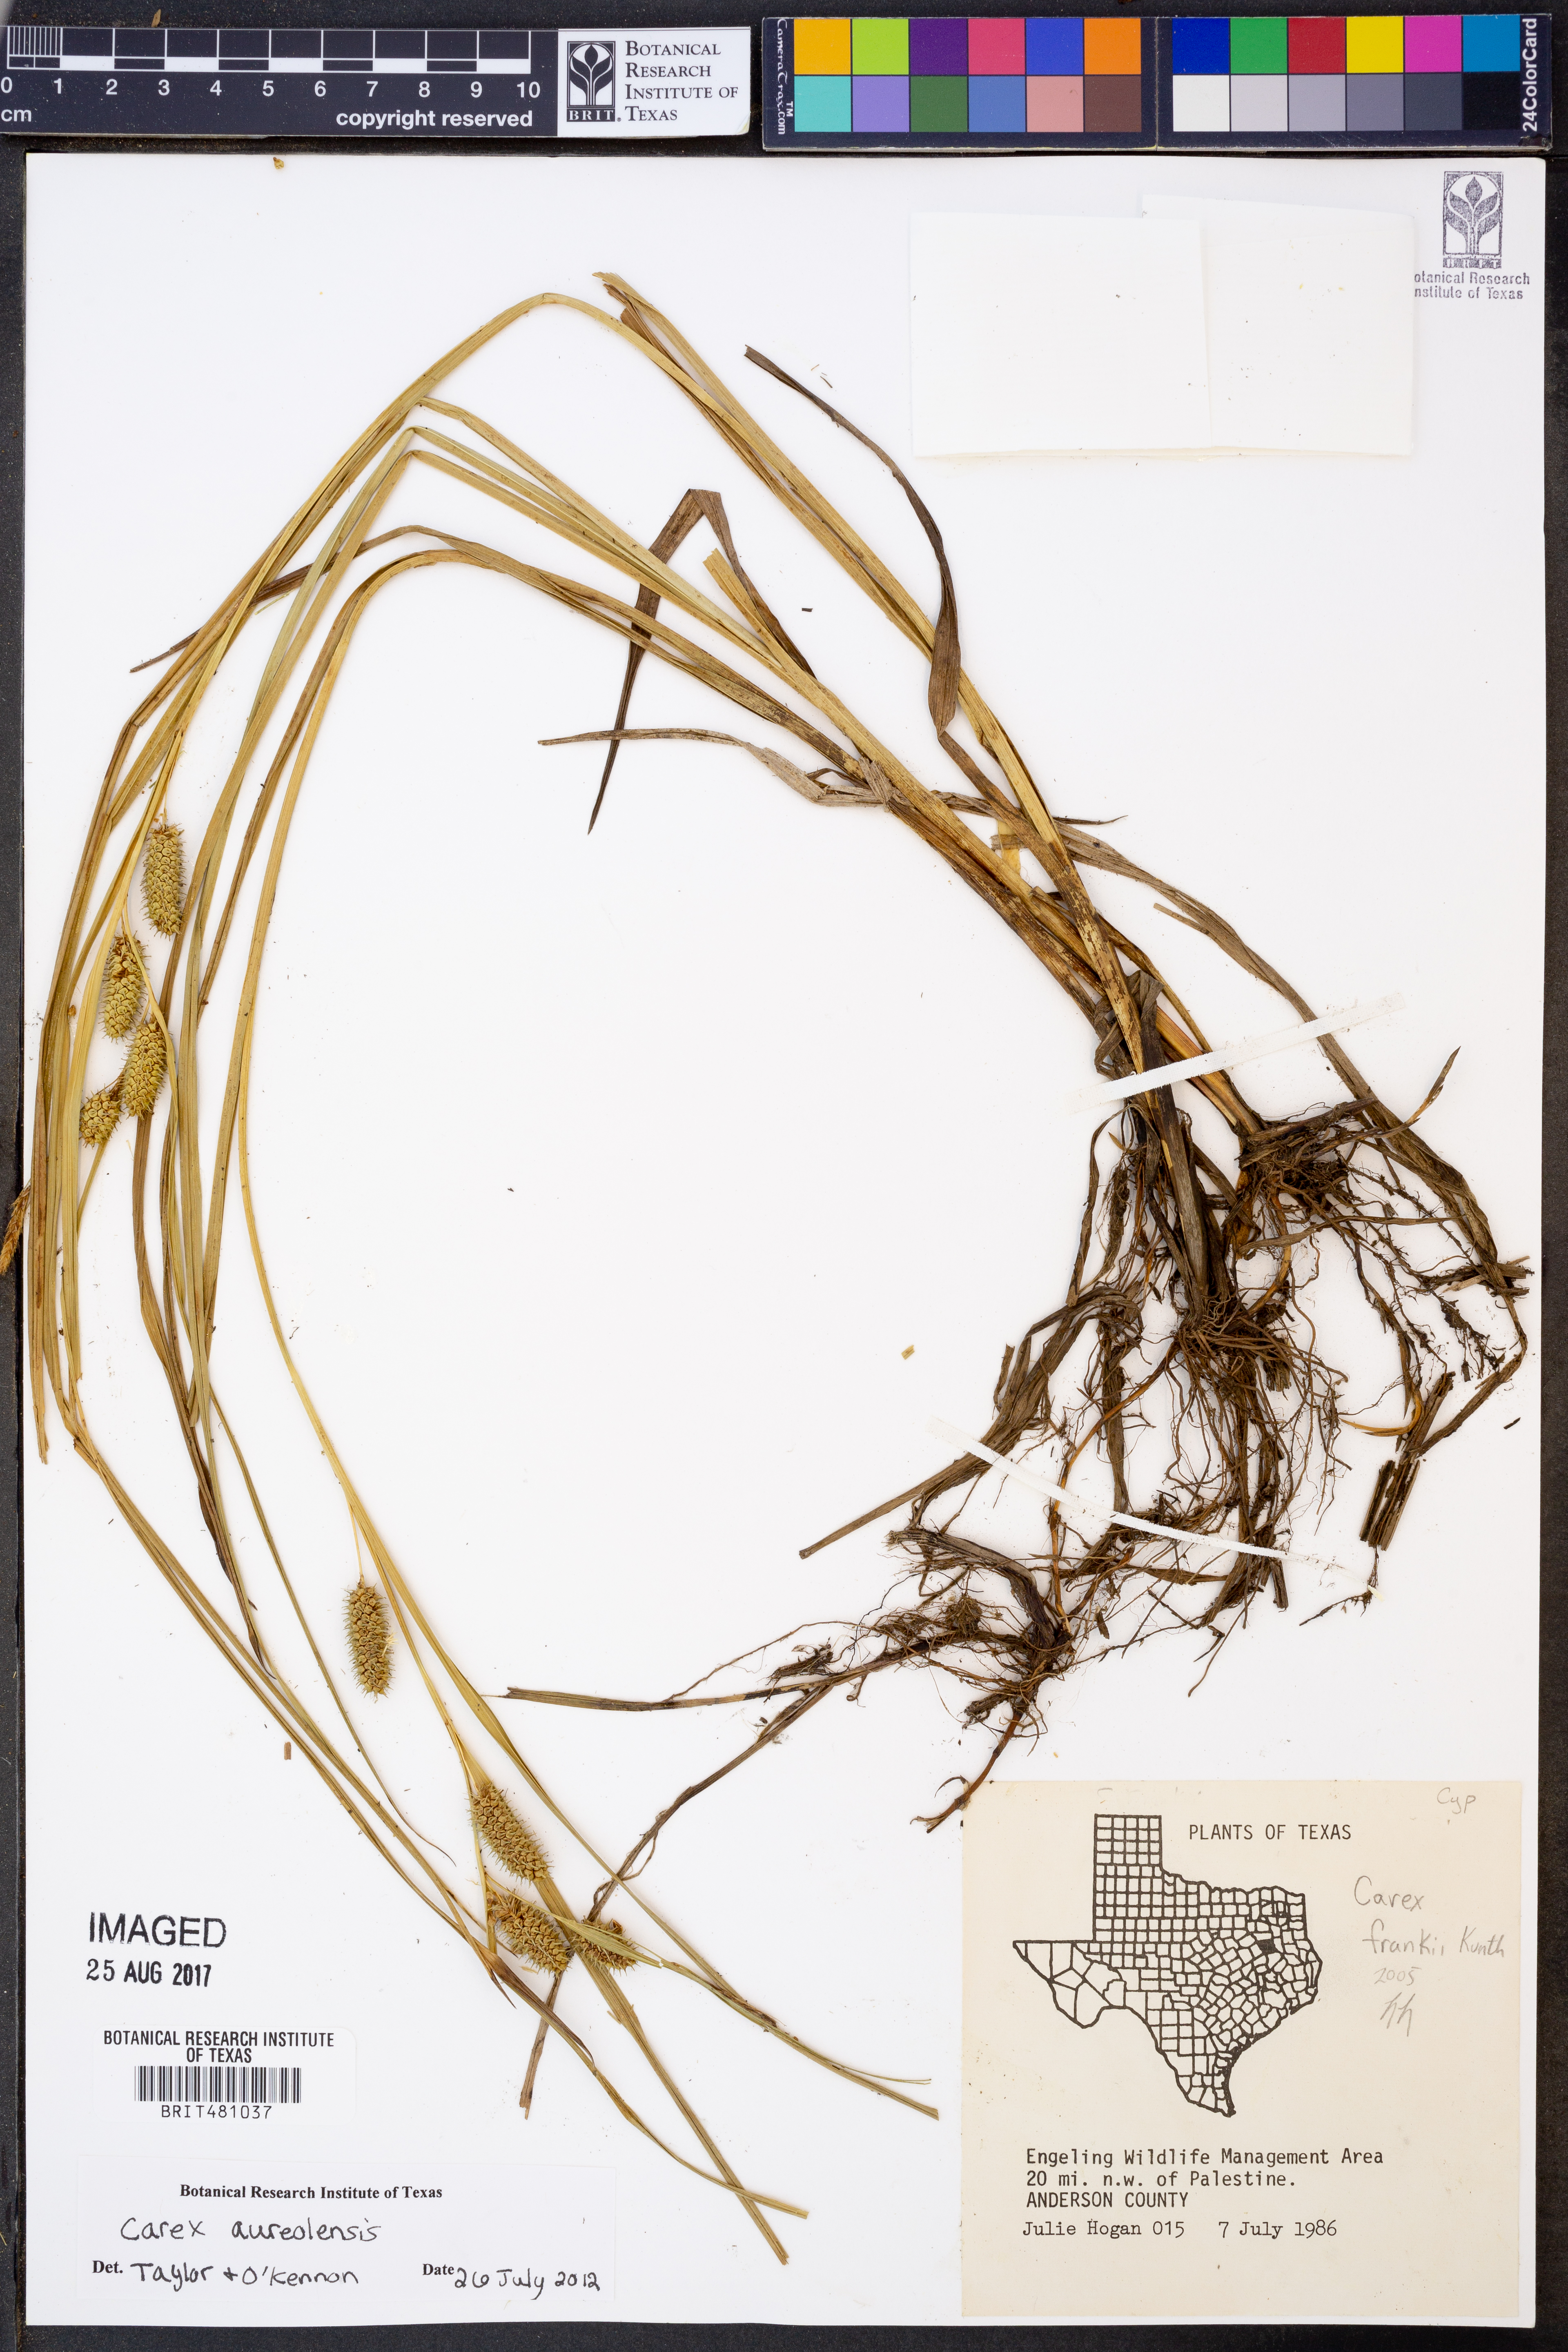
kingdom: Plantae
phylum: Tracheophyta
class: Liliopsida
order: Poales
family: Cyperaceae
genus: Carex
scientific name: Carex aureolensis
